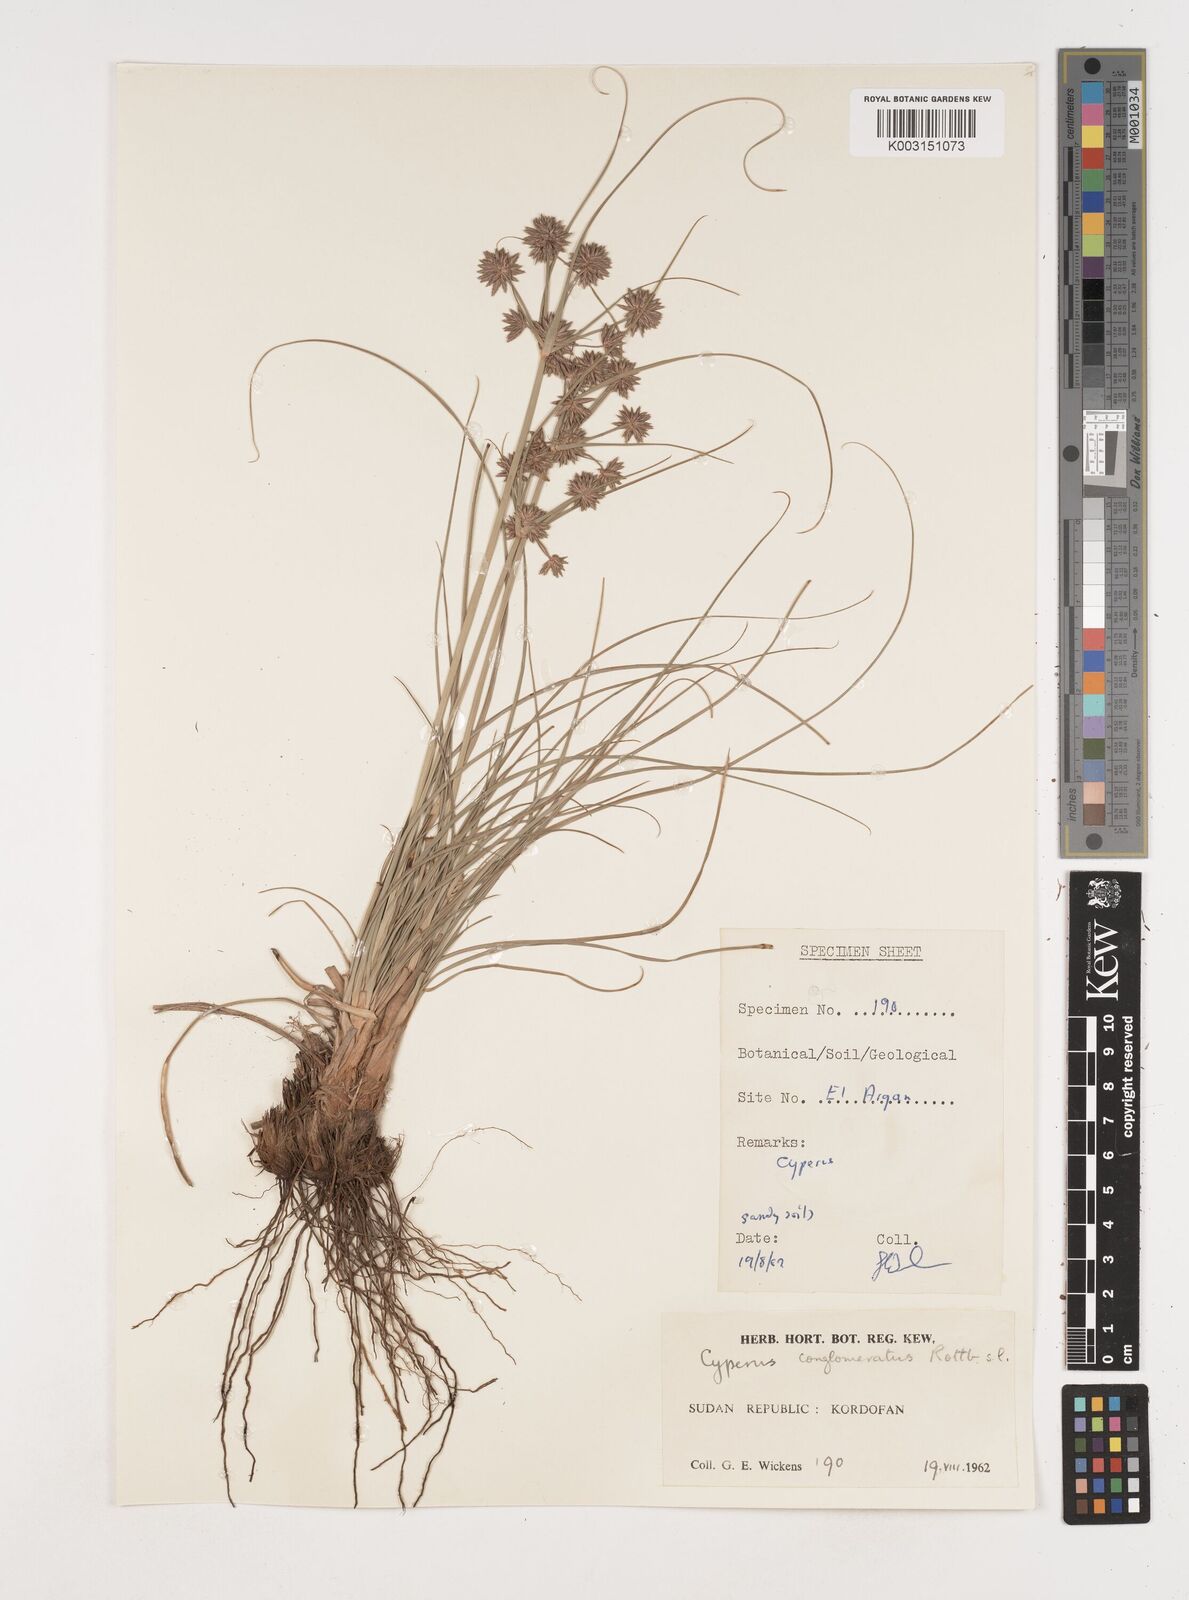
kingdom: Plantae
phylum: Tracheophyta
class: Liliopsida
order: Poales
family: Cyperaceae
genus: Cyperus
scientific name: Cyperus jeminicus
